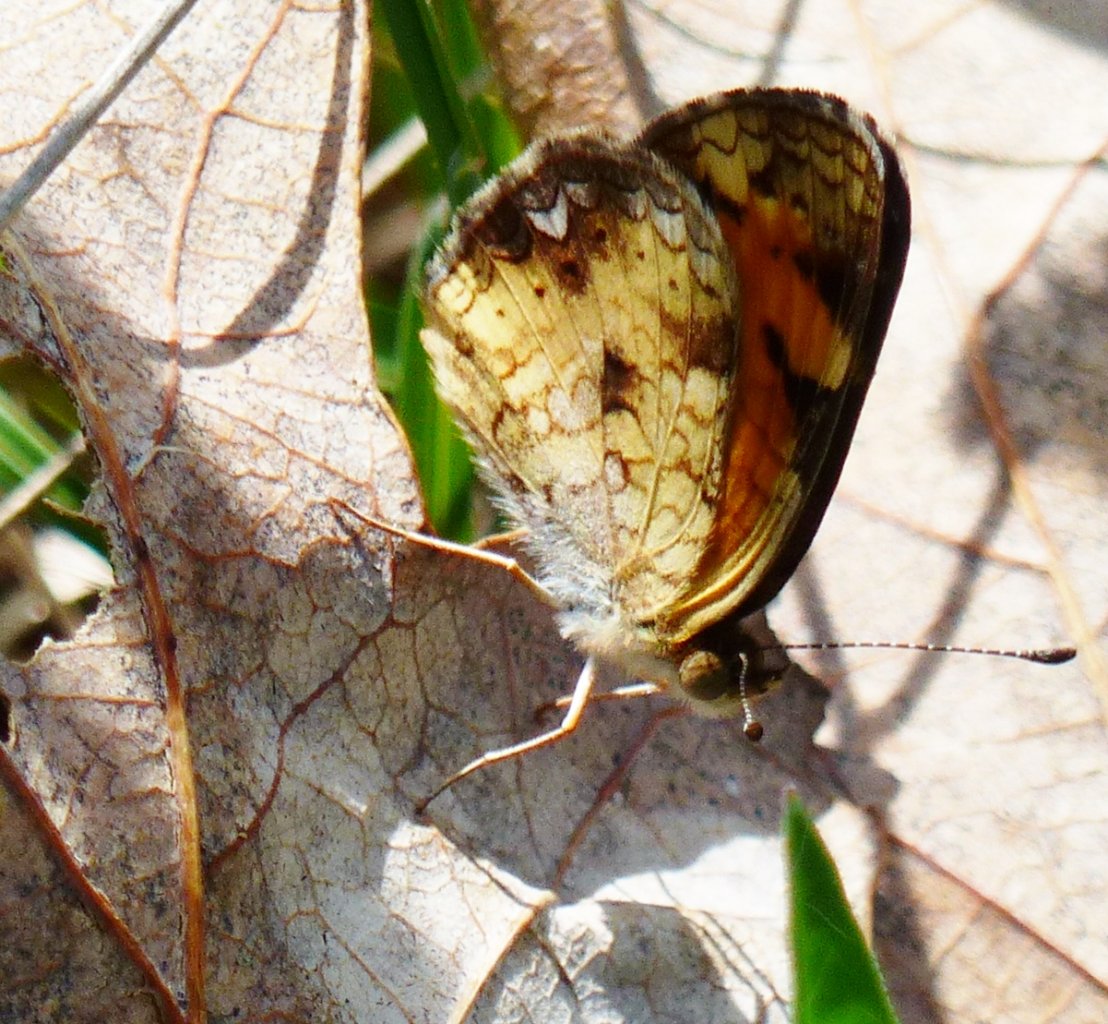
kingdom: Animalia
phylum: Arthropoda
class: Insecta
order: Lepidoptera
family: Nymphalidae
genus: Phyciodes
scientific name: Phyciodes tharos
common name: Pearl Crescent
